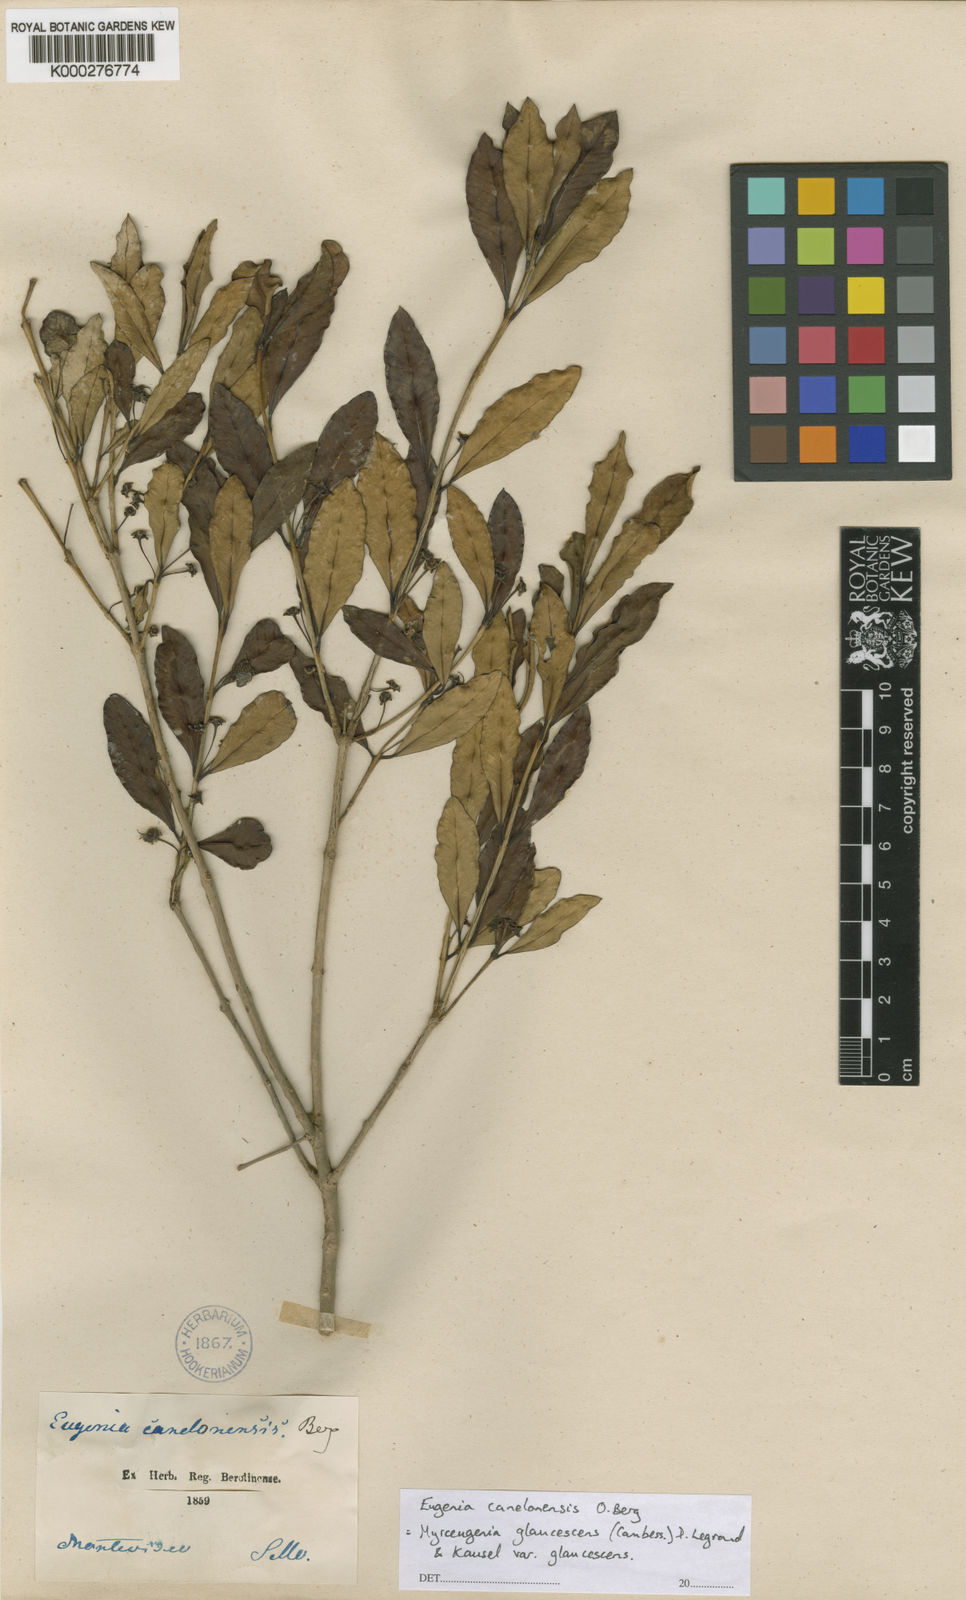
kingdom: Plantae
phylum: Tracheophyta
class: Magnoliopsida
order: Myrtales
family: Myrtaceae
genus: Myrceugenia
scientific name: Myrceugenia glaucescens
